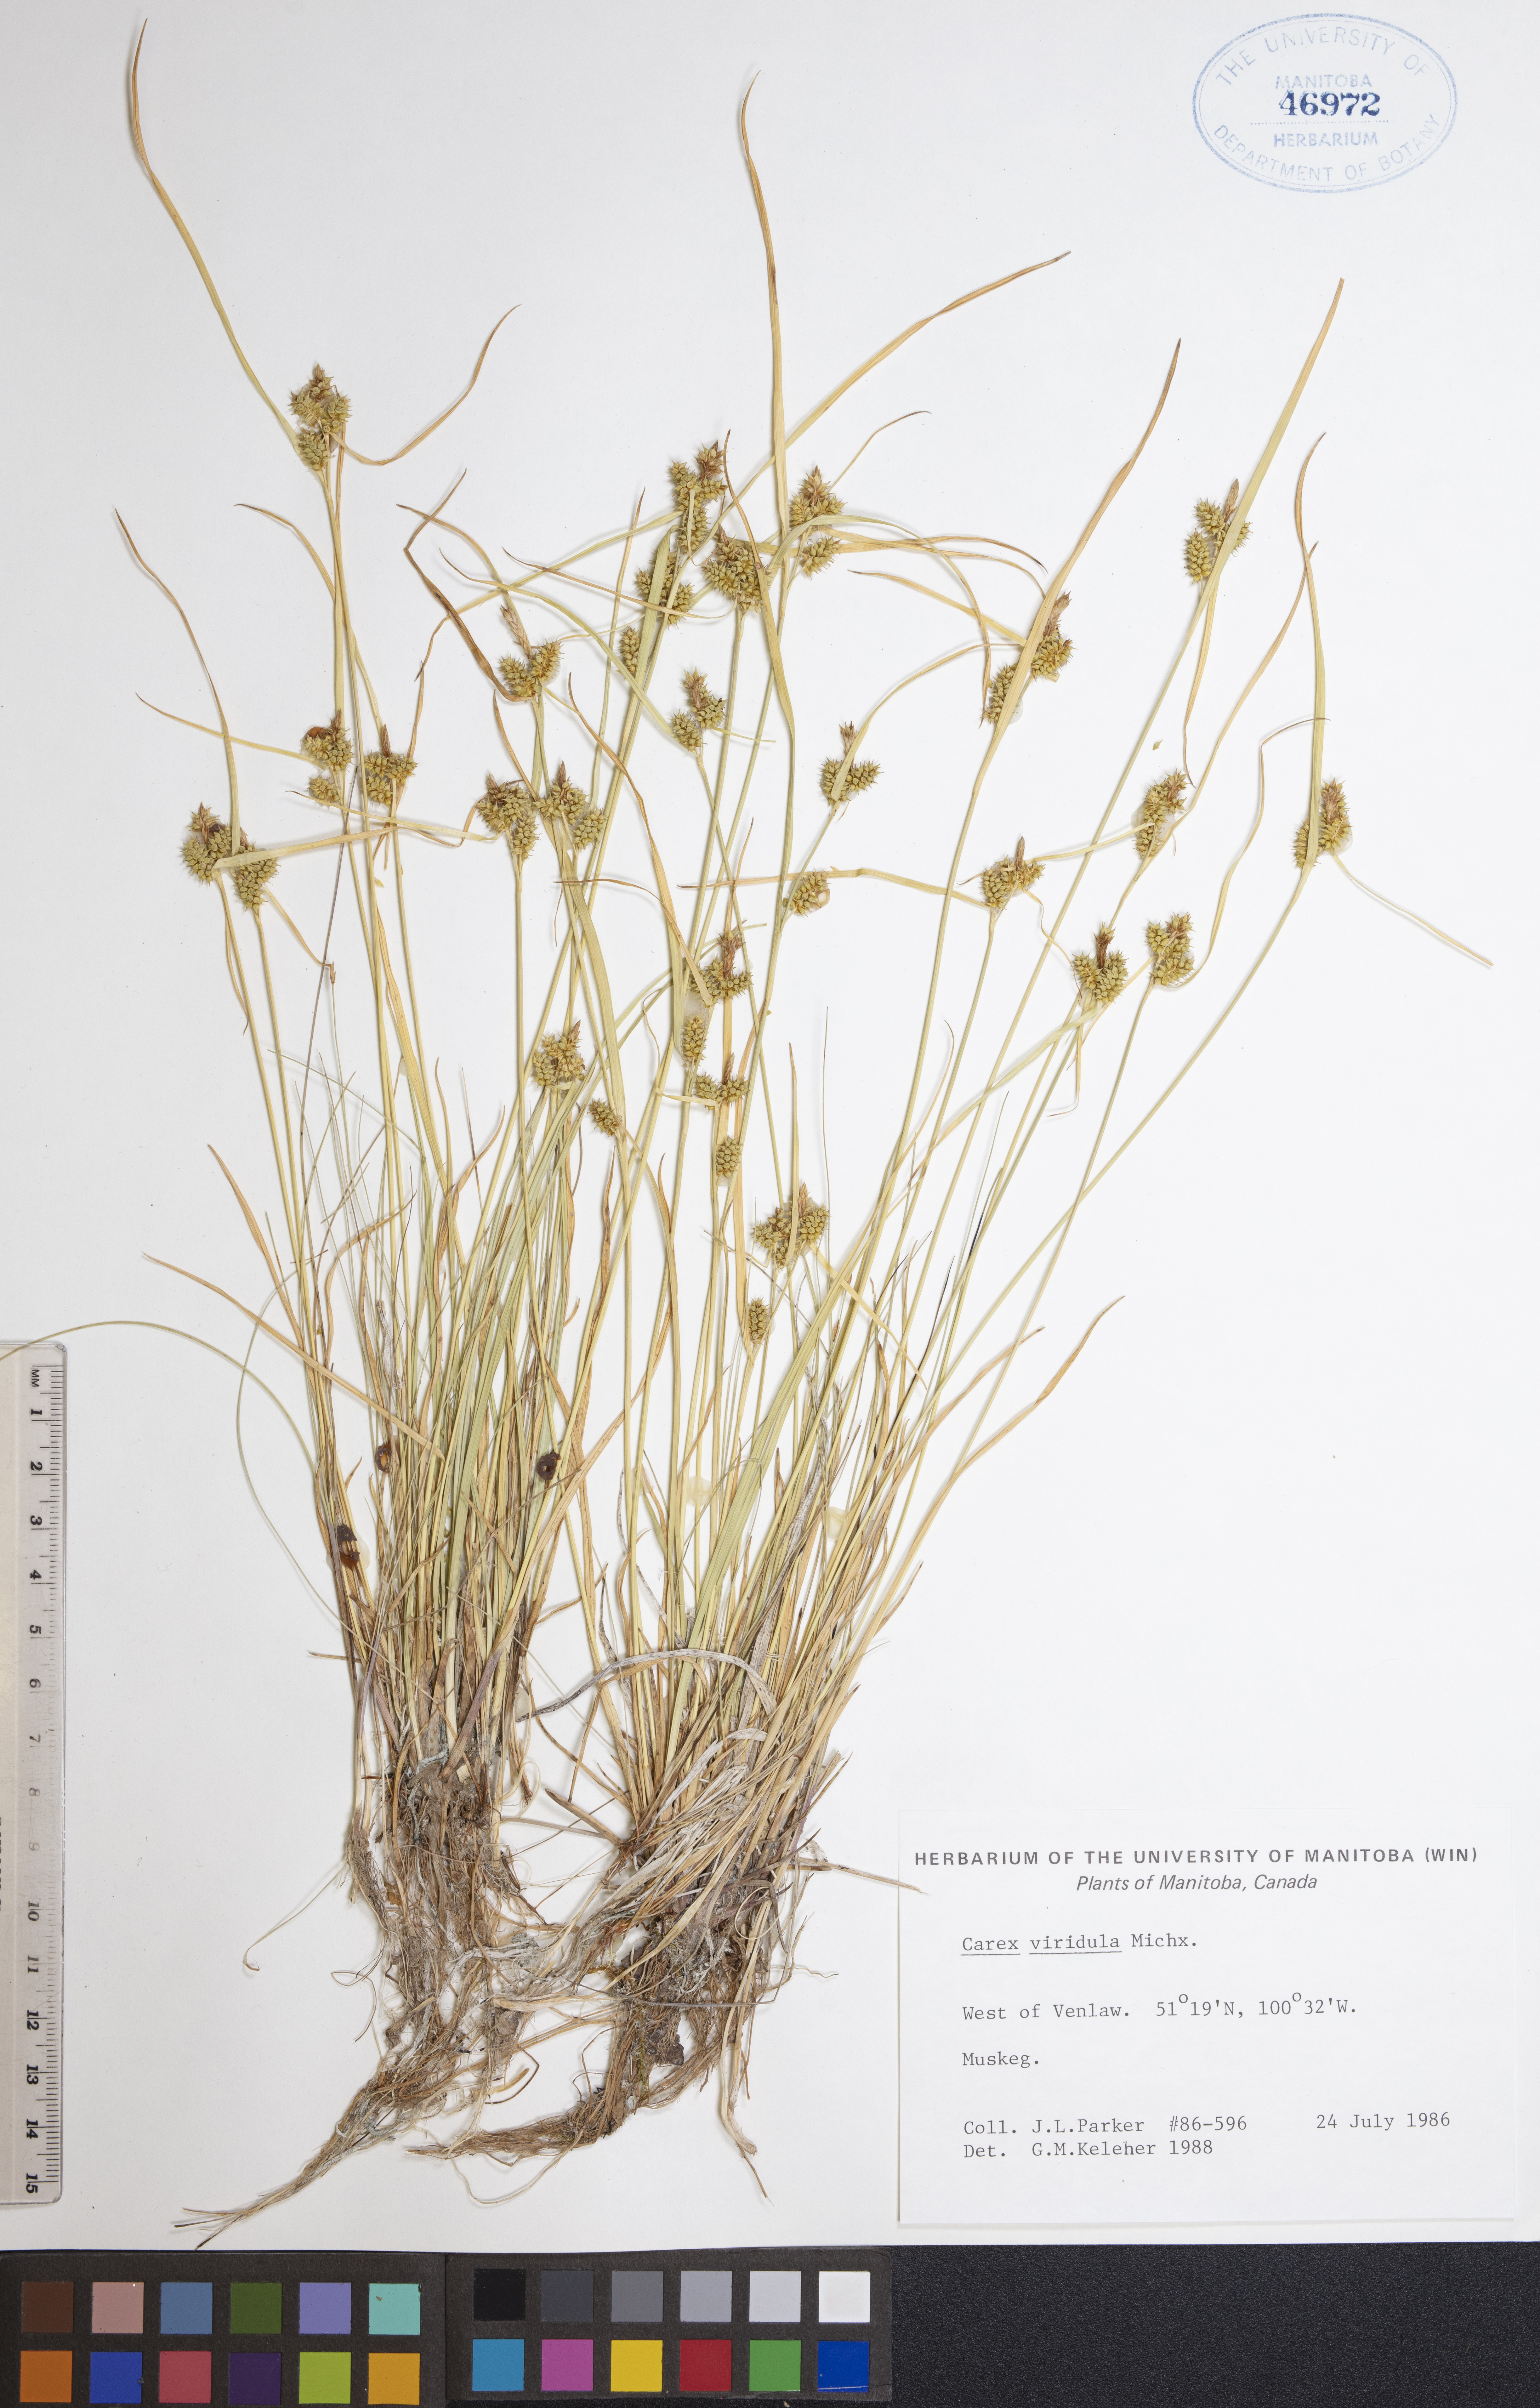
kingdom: Plantae
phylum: Tracheophyta
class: Liliopsida
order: Poales
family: Cyperaceae
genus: Carex
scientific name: Carex oederi
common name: Common & small-fruited yellow-sedge
